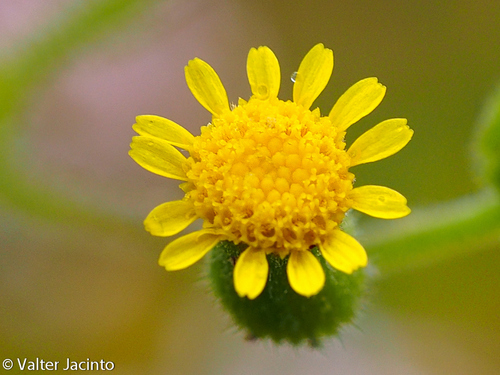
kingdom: Plantae
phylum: Tracheophyta
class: Magnoliopsida
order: Asterales
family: Asteraceae
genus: Senecio
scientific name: Senecio lividus
